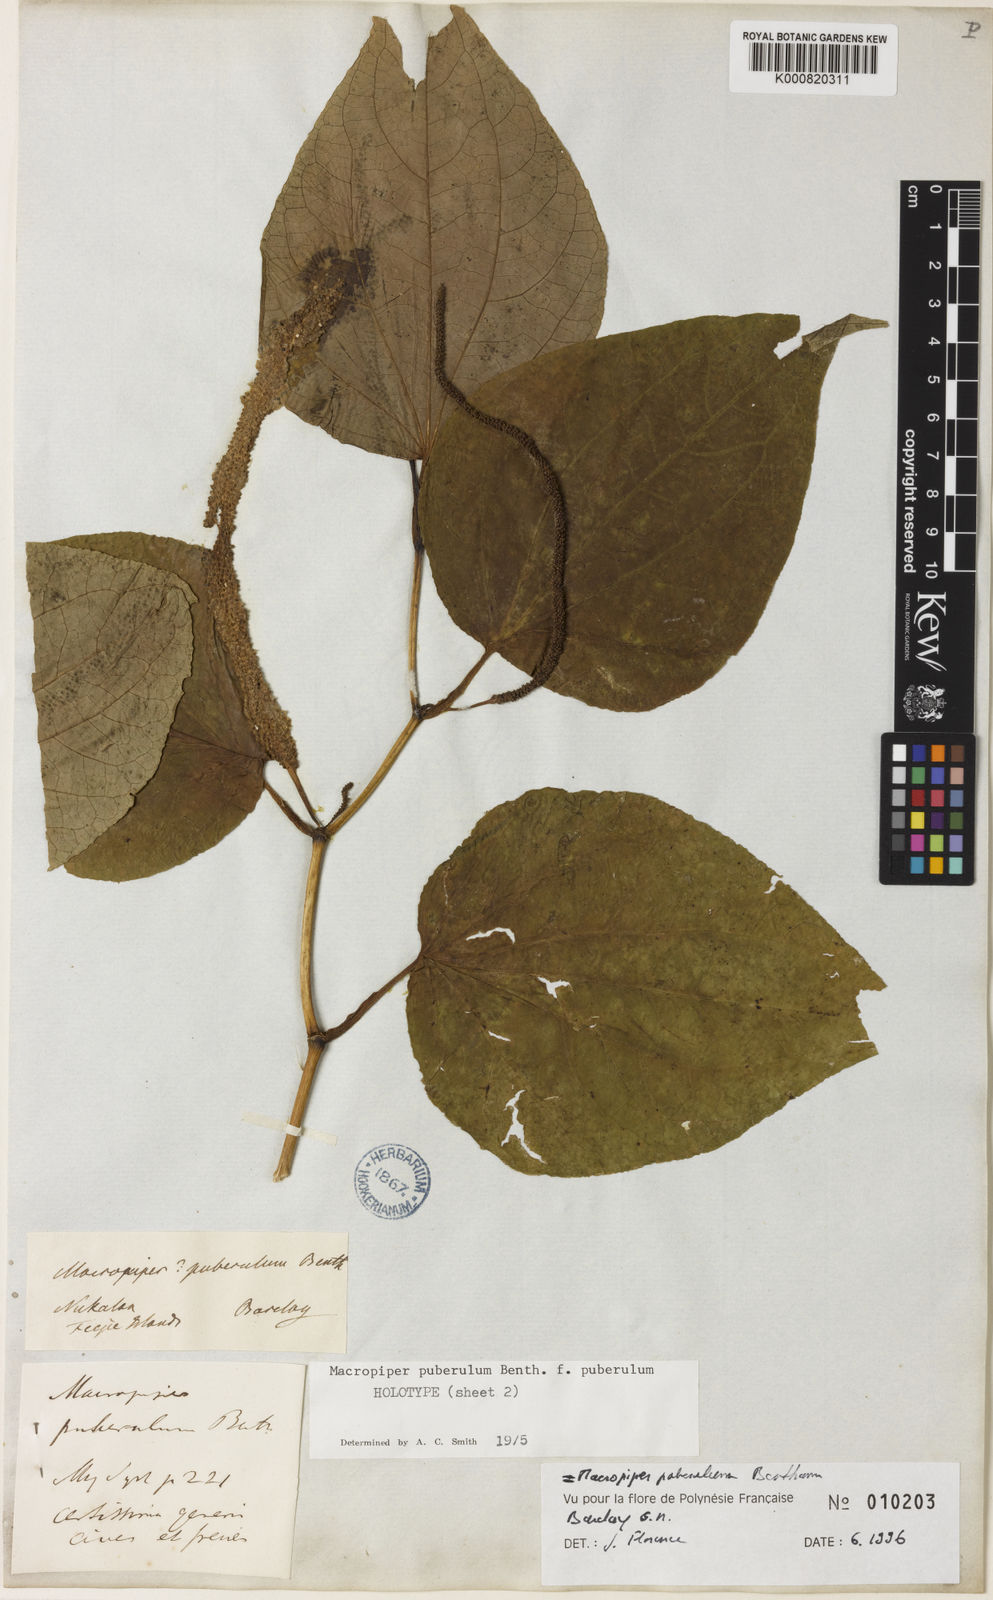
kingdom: Plantae
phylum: Tracheophyta
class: Magnoliopsida
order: Piperales
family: Piperaceae
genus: Macropiper
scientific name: Macropiper puberulum
